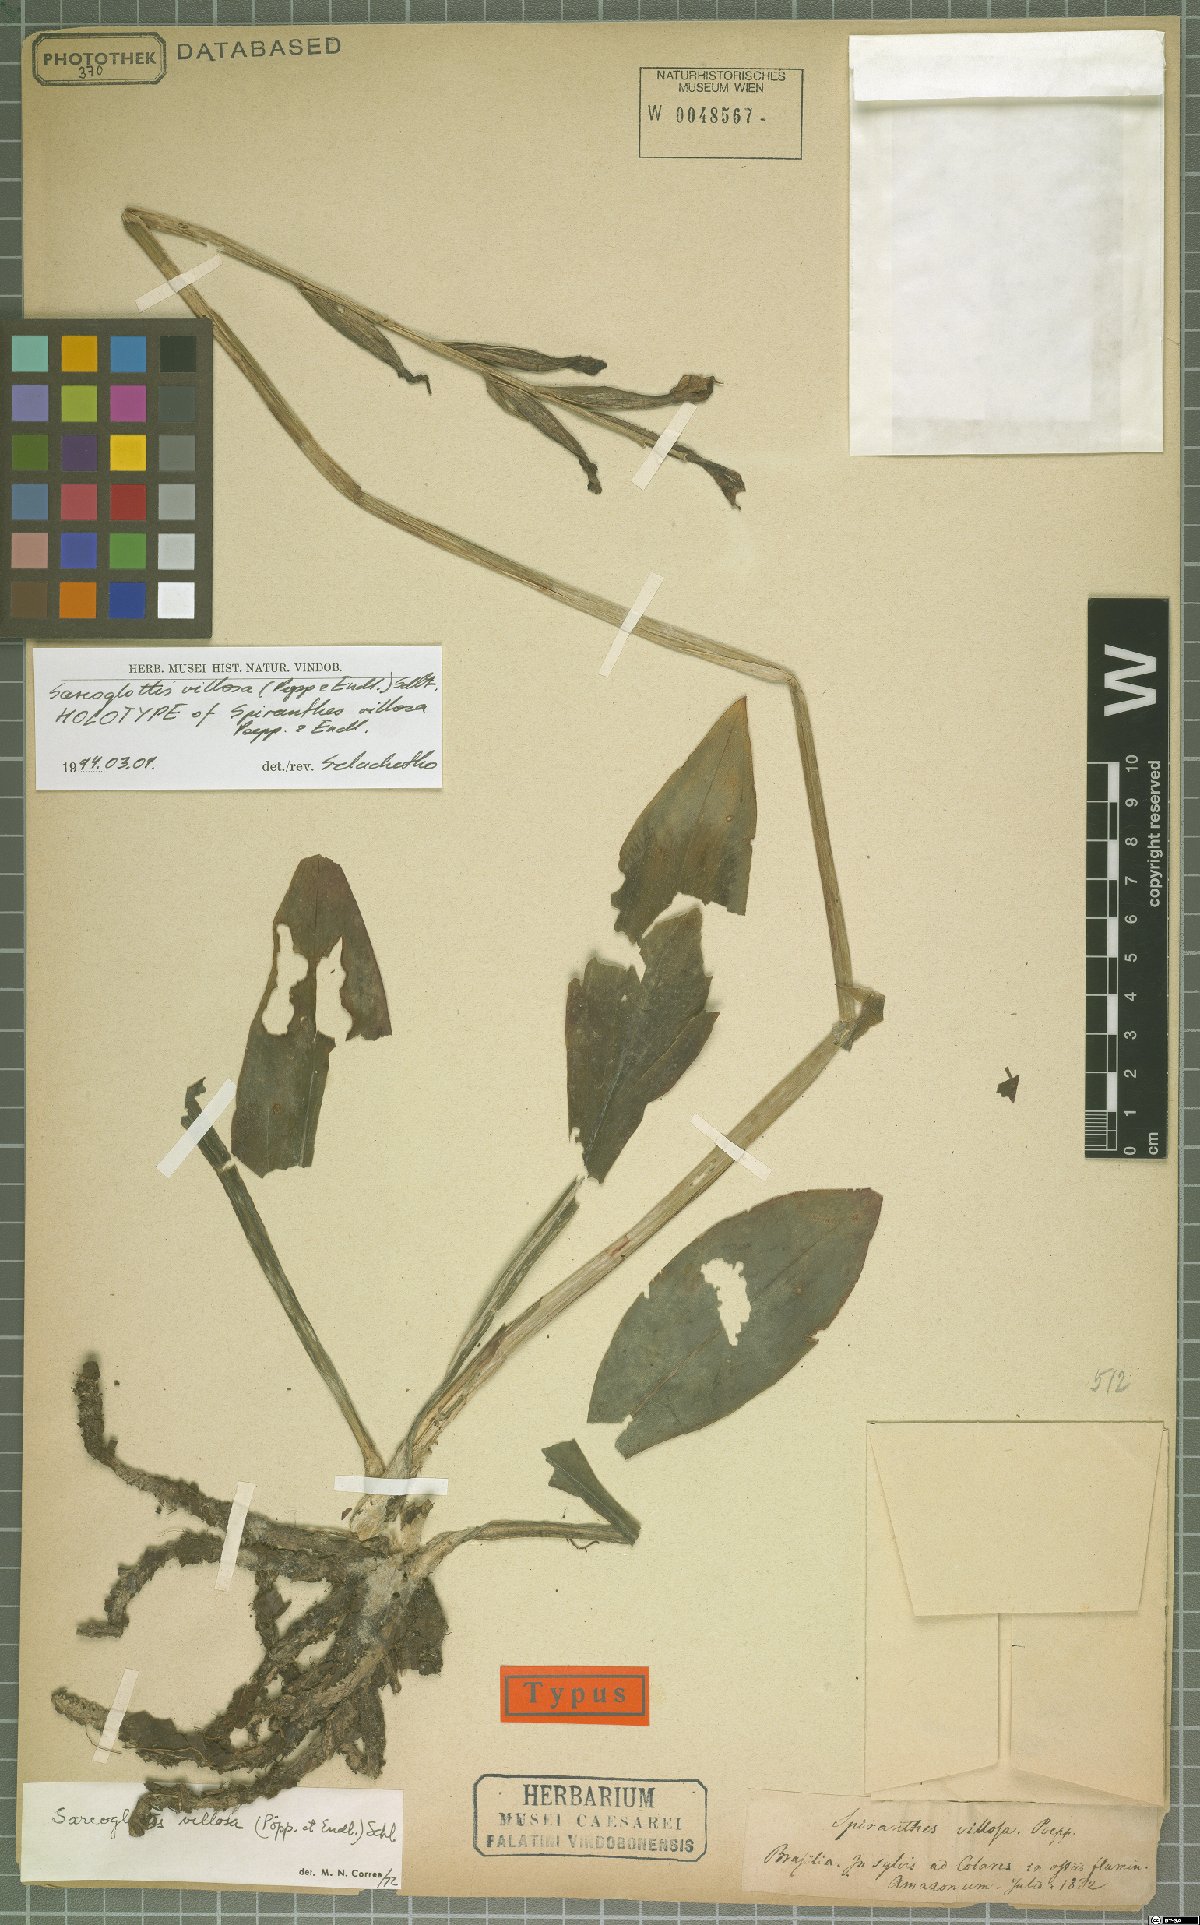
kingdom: Plantae
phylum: Tracheophyta
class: Liliopsida
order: Asparagales
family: Orchidaceae
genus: Sarcoglottis
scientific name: Sarcoglottis villosa
